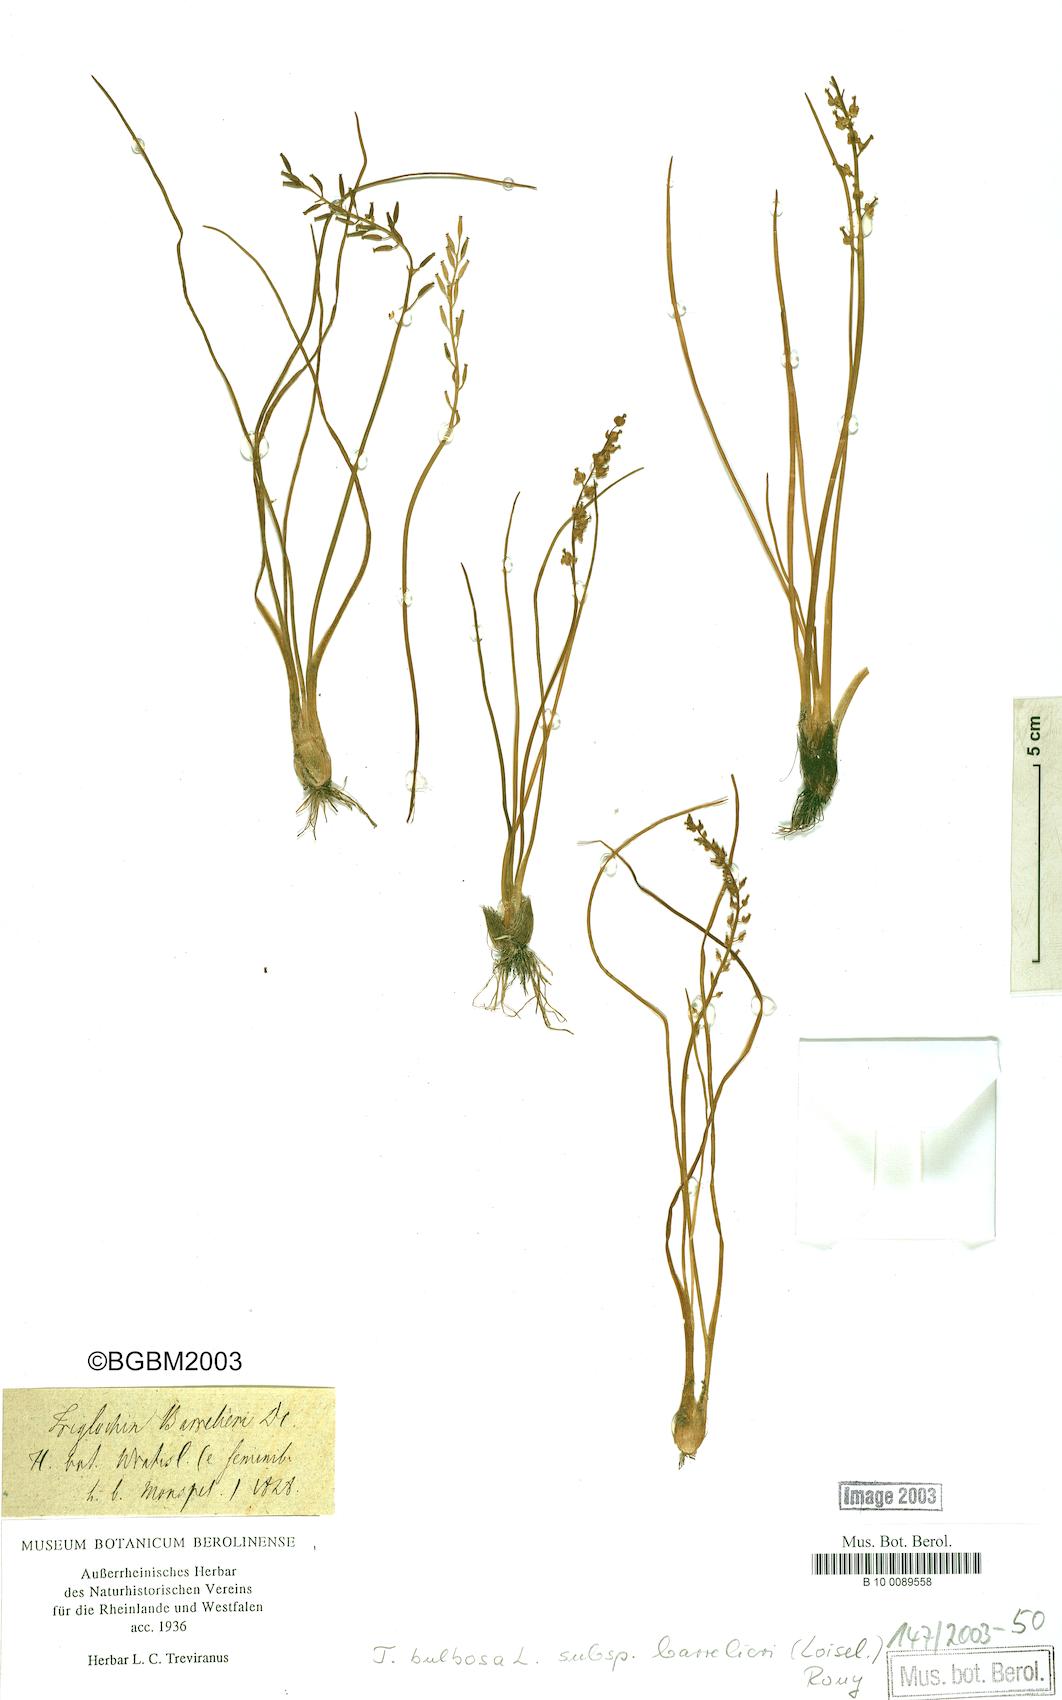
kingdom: Plantae
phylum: Tracheophyta
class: Liliopsida
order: Alismatales
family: Juncaginaceae
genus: Triglochin
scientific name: Triglochin barrelieri
